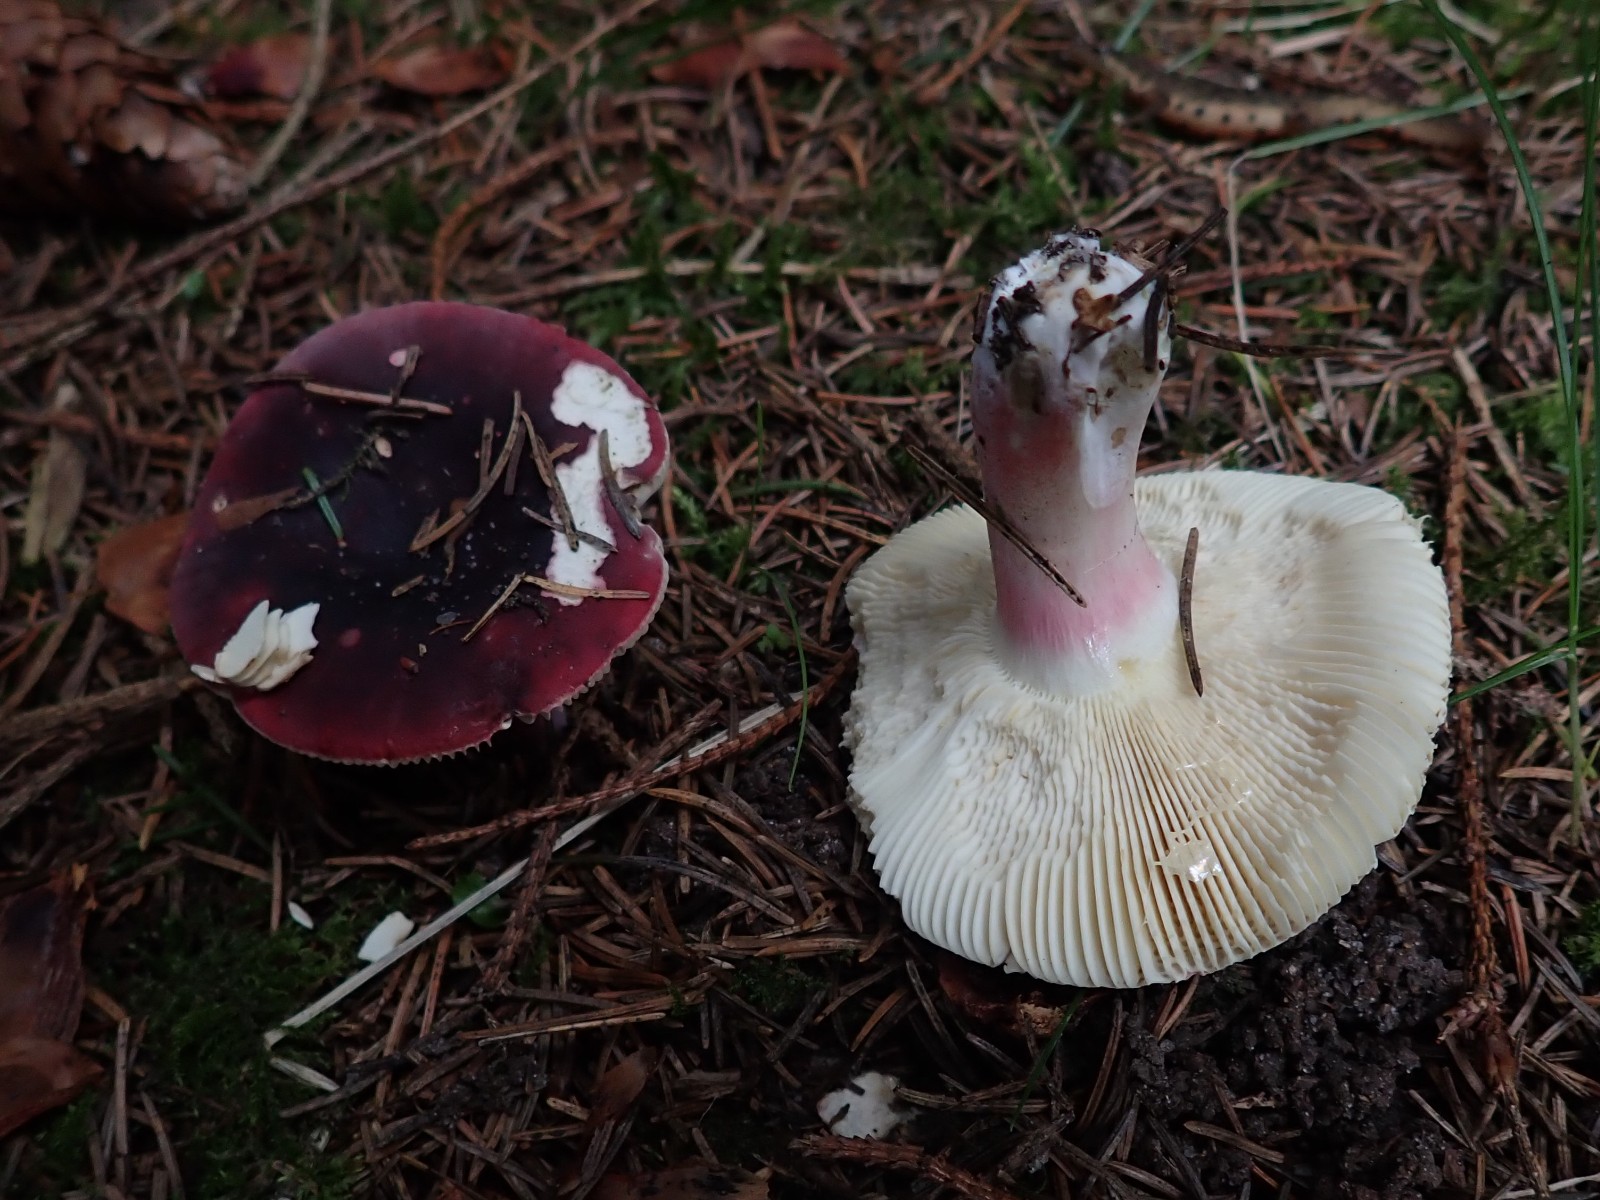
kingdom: Fungi
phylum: Basidiomycota
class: Agaricomycetes
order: Russulales
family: Russulaceae
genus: Russula
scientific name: Russula xerampelina
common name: hummer-skørhat
